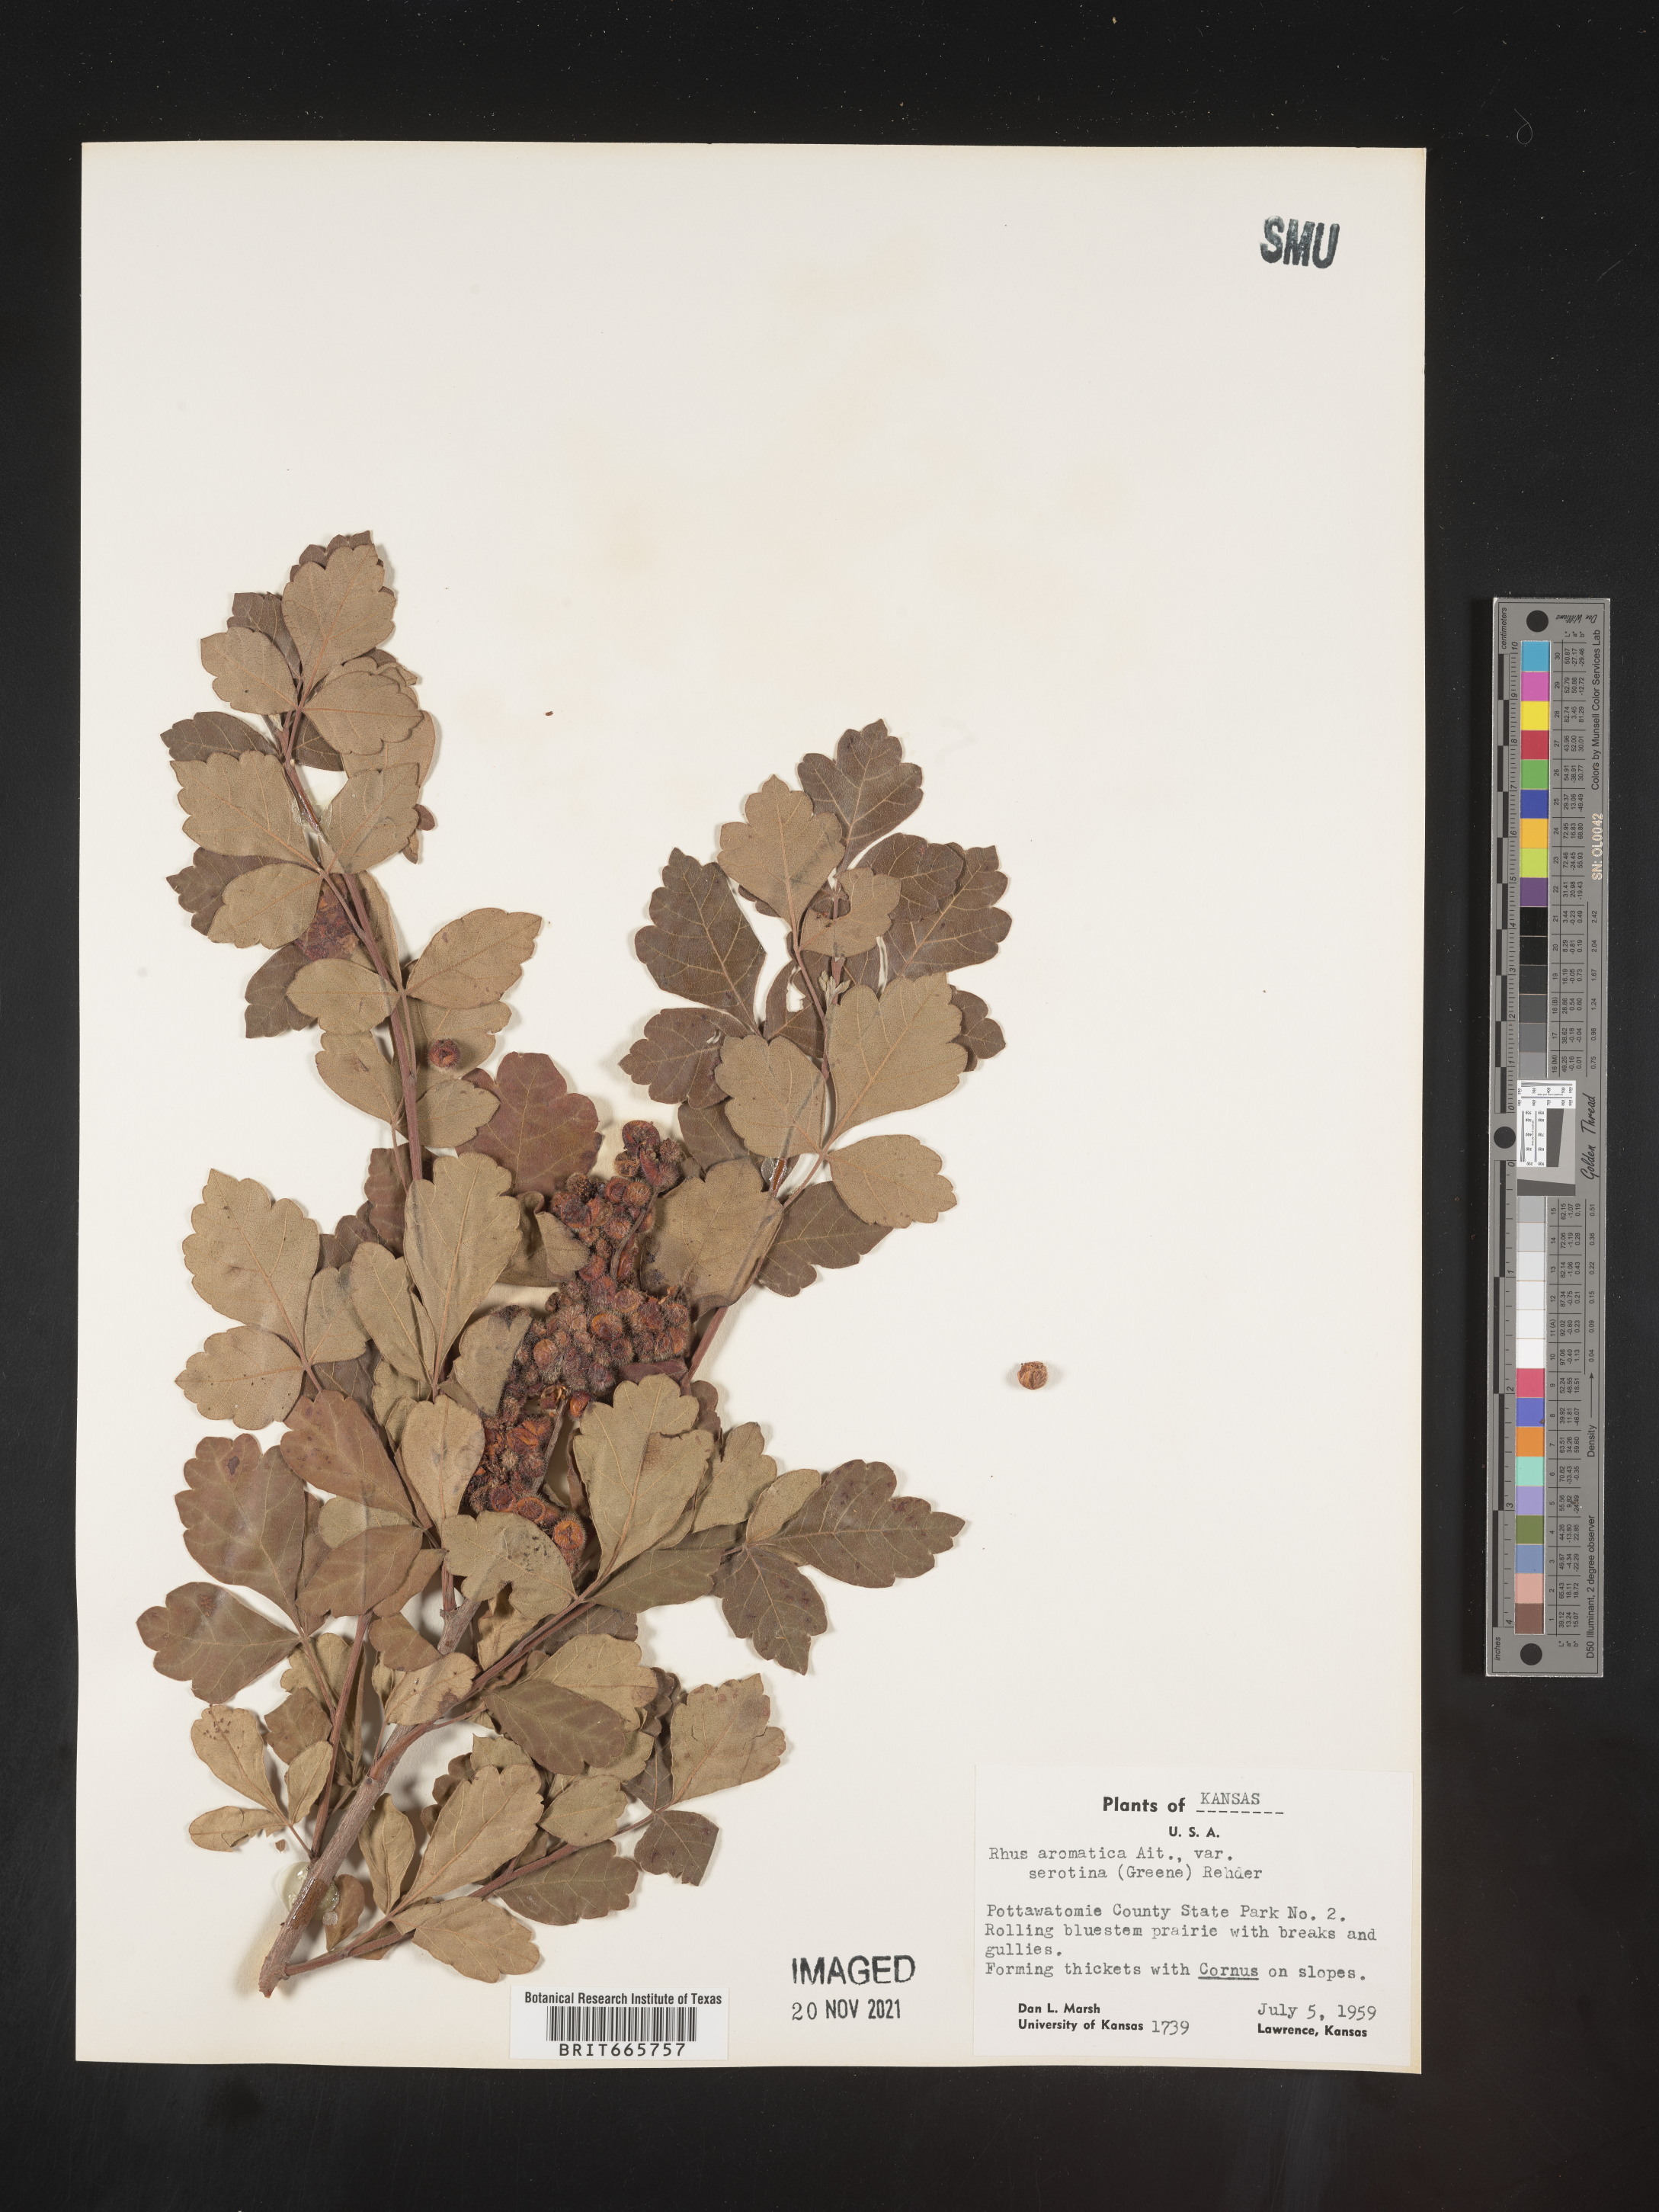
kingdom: Plantae
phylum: Tracheophyta
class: Magnoliopsida
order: Sapindales
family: Anacardiaceae
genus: Rhus
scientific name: Rhus aromatica
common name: Aromatic sumac
